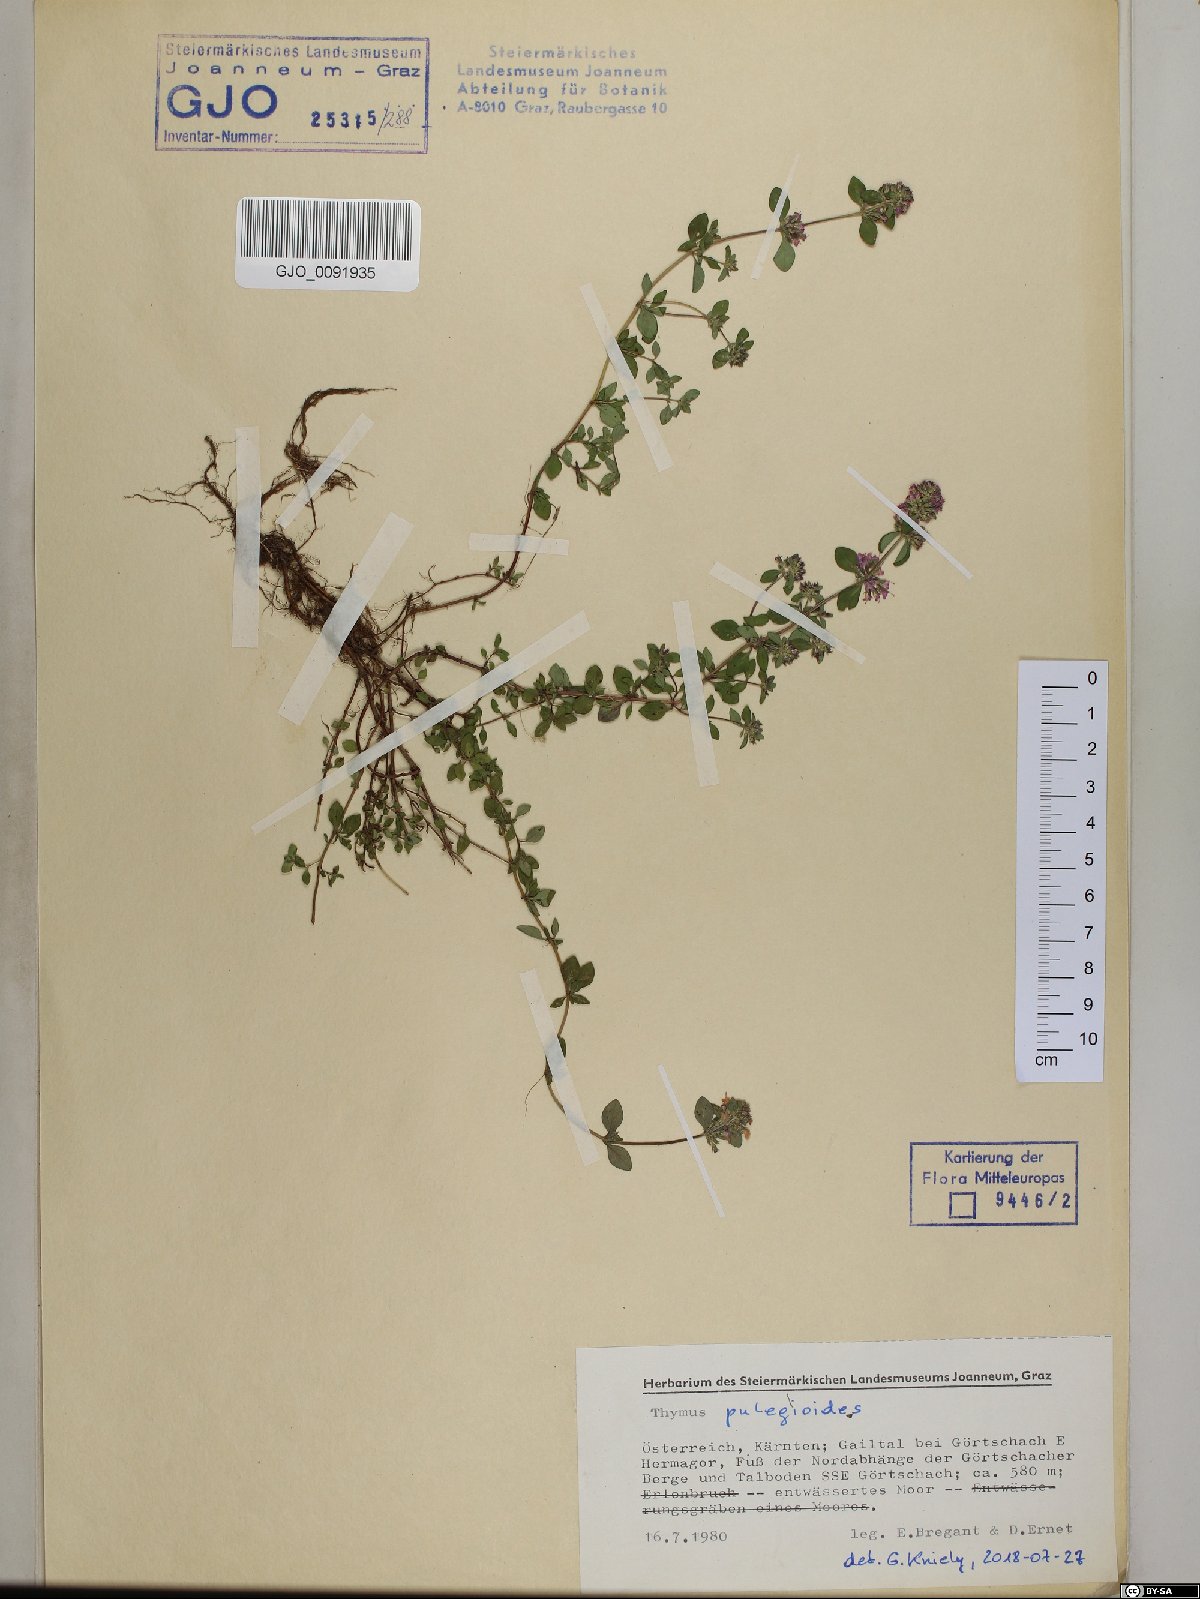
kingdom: Plantae
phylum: Tracheophyta
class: Magnoliopsida
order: Lamiales
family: Lamiaceae
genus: Thymus
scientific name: Thymus pulegioides
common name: Large thyme
